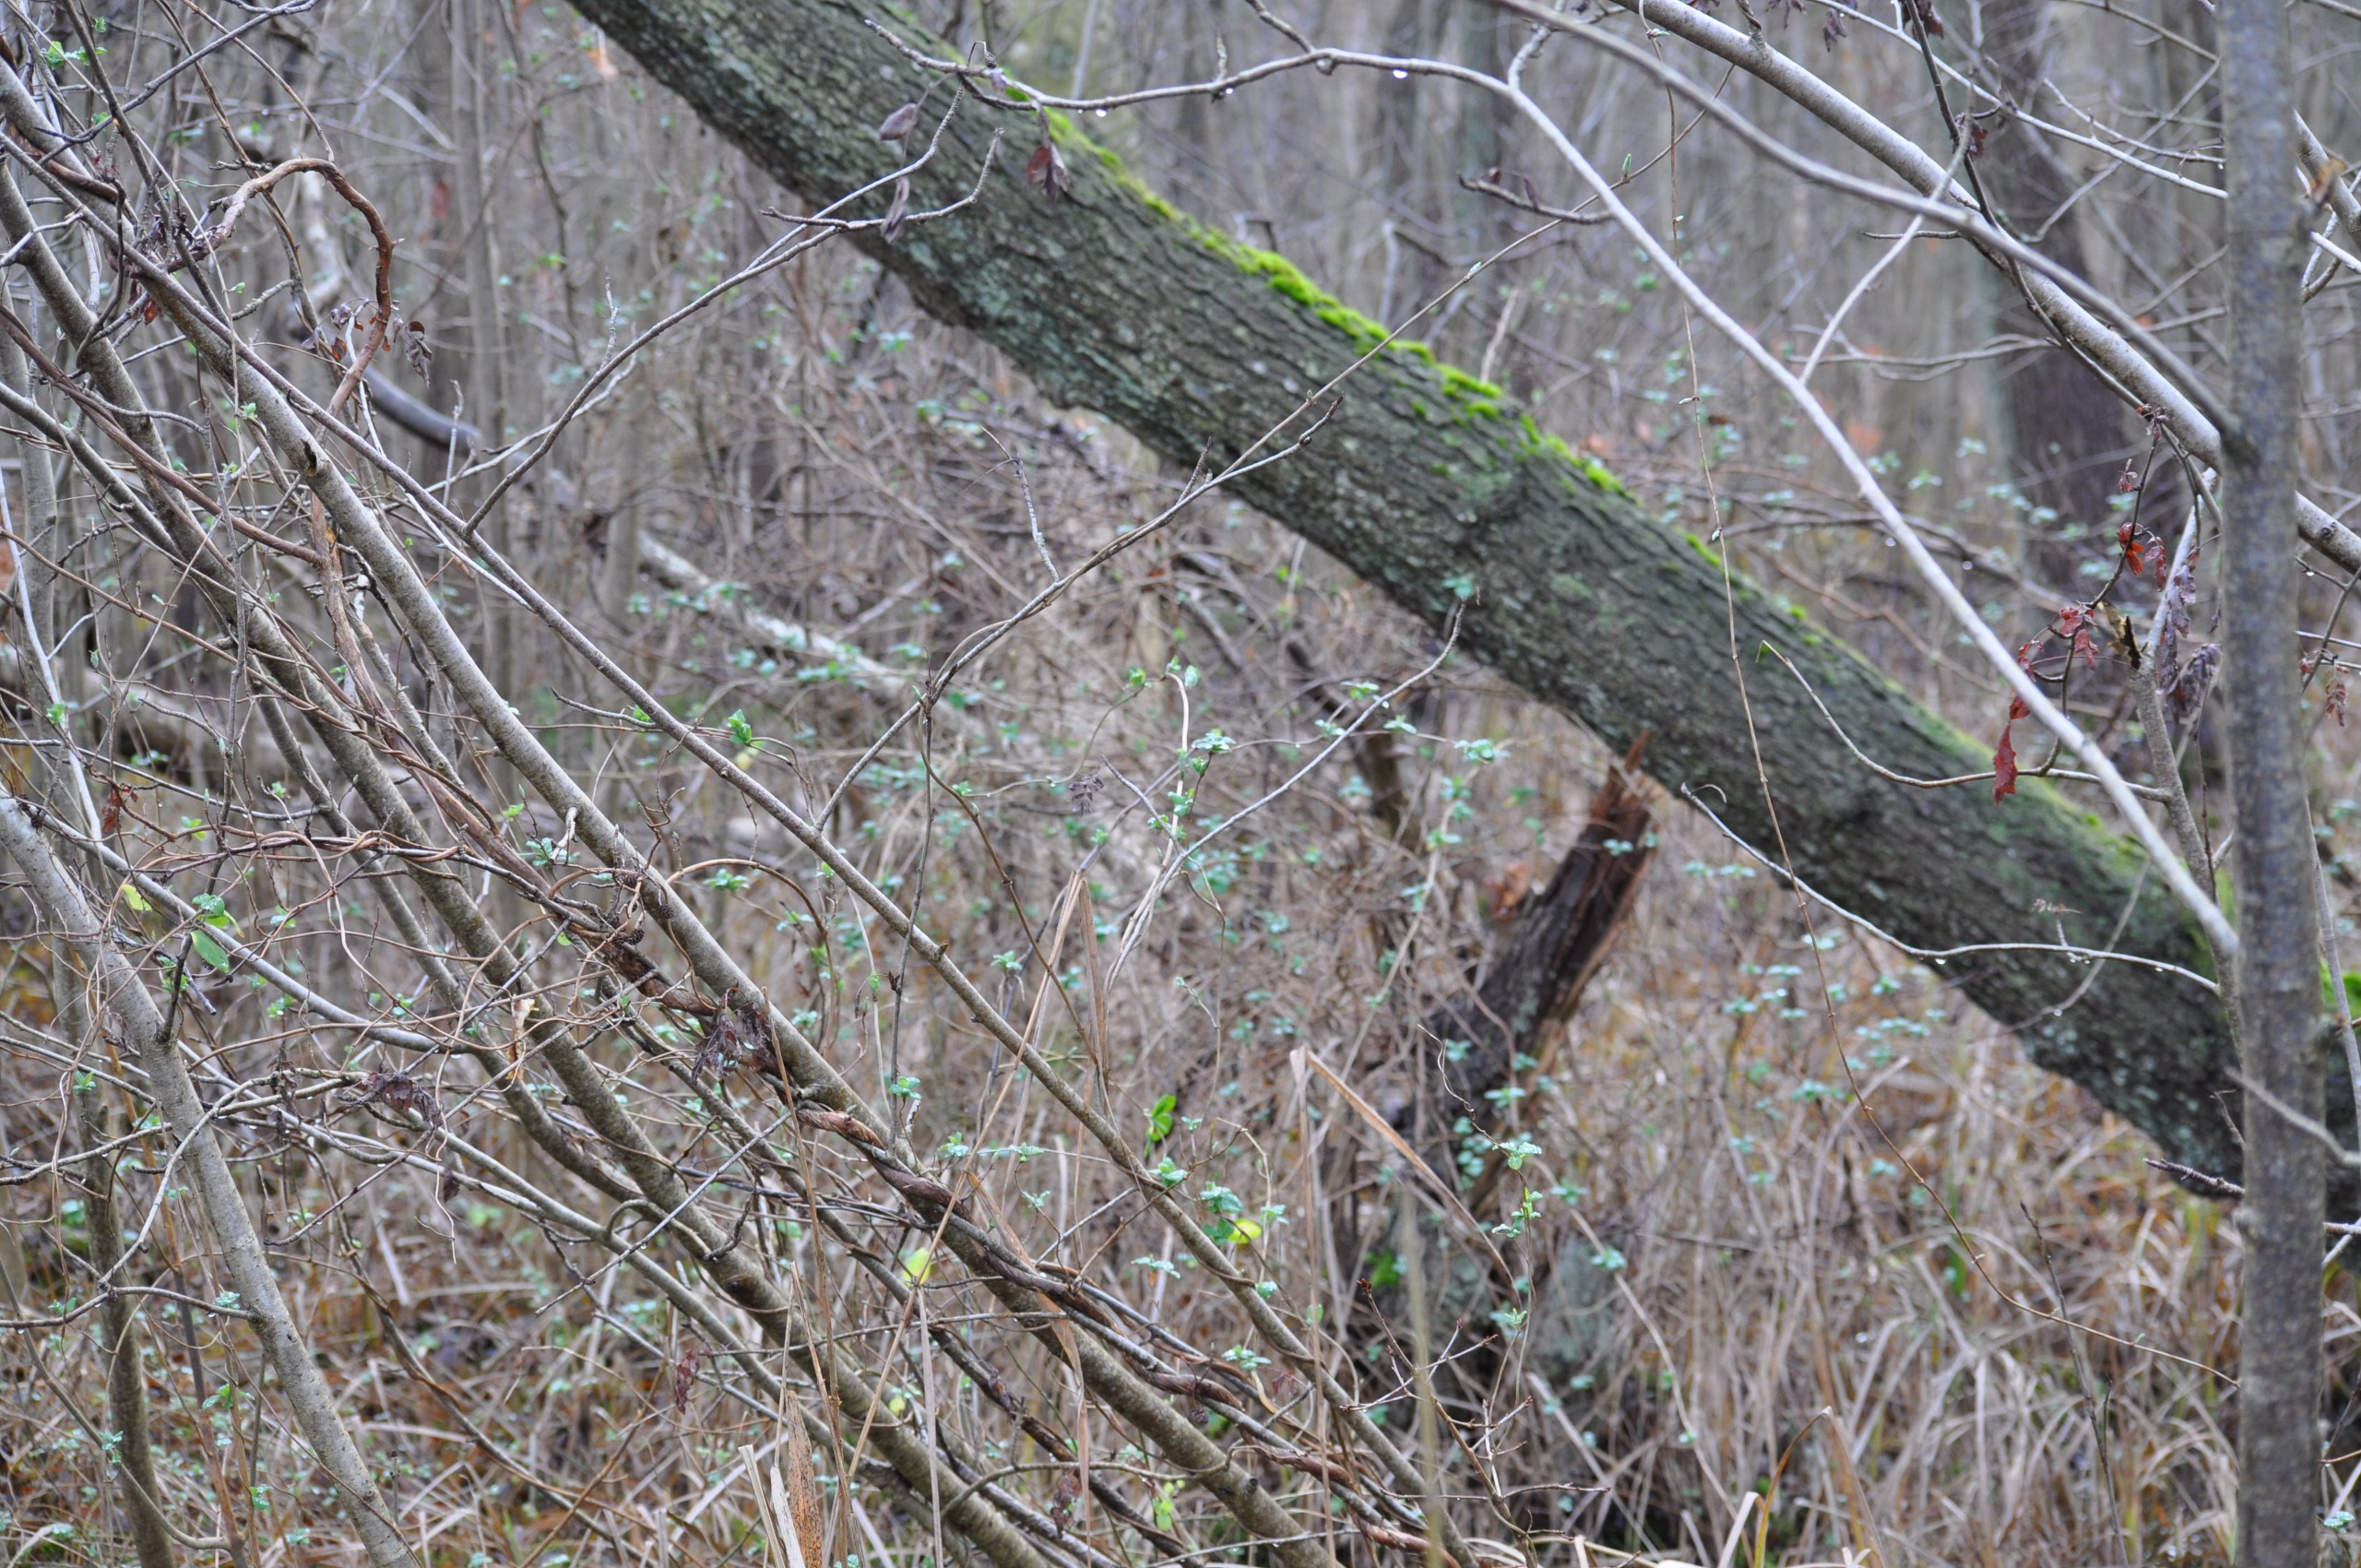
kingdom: Plantae
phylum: Tracheophyta
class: Magnoliopsida
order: Dipsacales
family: Caprifoliaceae
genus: Lonicera
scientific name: Lonicera periclymenum
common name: Almindelig gedeblad
